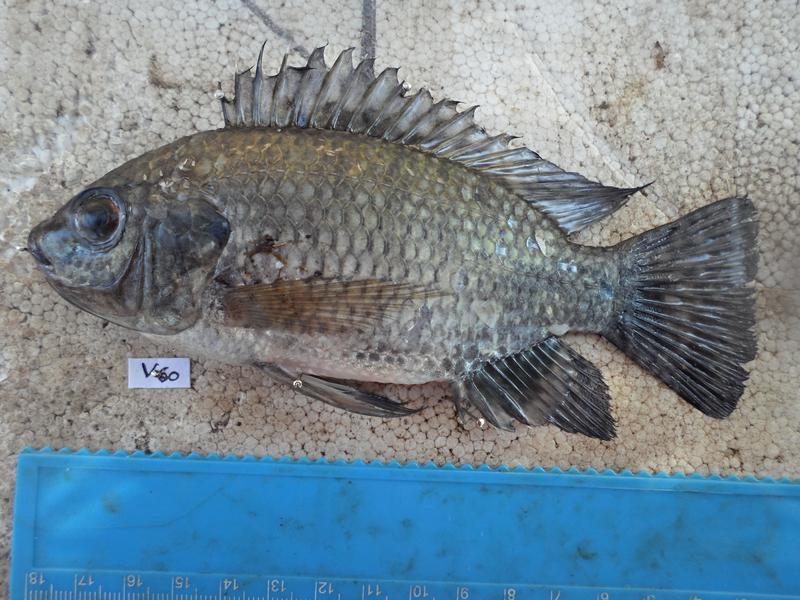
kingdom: Animalia
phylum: Chordata
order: Perciformes
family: Cichlidae
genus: Oreochromis
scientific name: Oreochromis leucostictus
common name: Blue spotted tilapia
